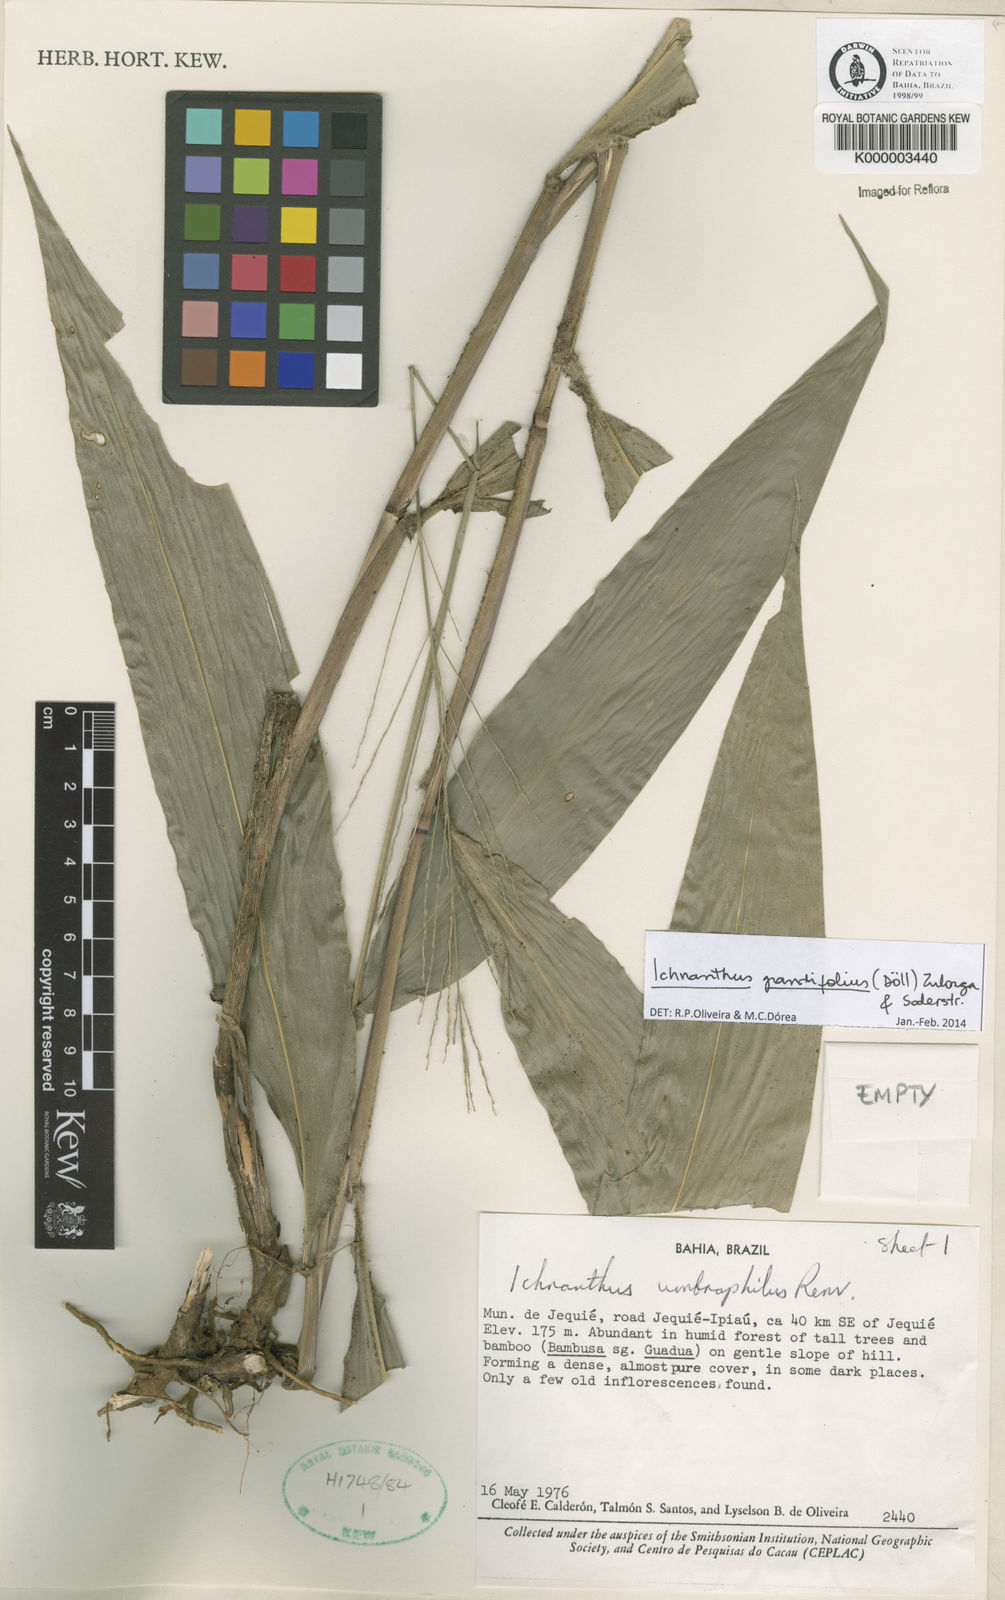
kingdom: Plantae
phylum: Tracheophyta
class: Liliopsida
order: Poales
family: Poaceae
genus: Oedochloa
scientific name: Oedochloa grandifolia
